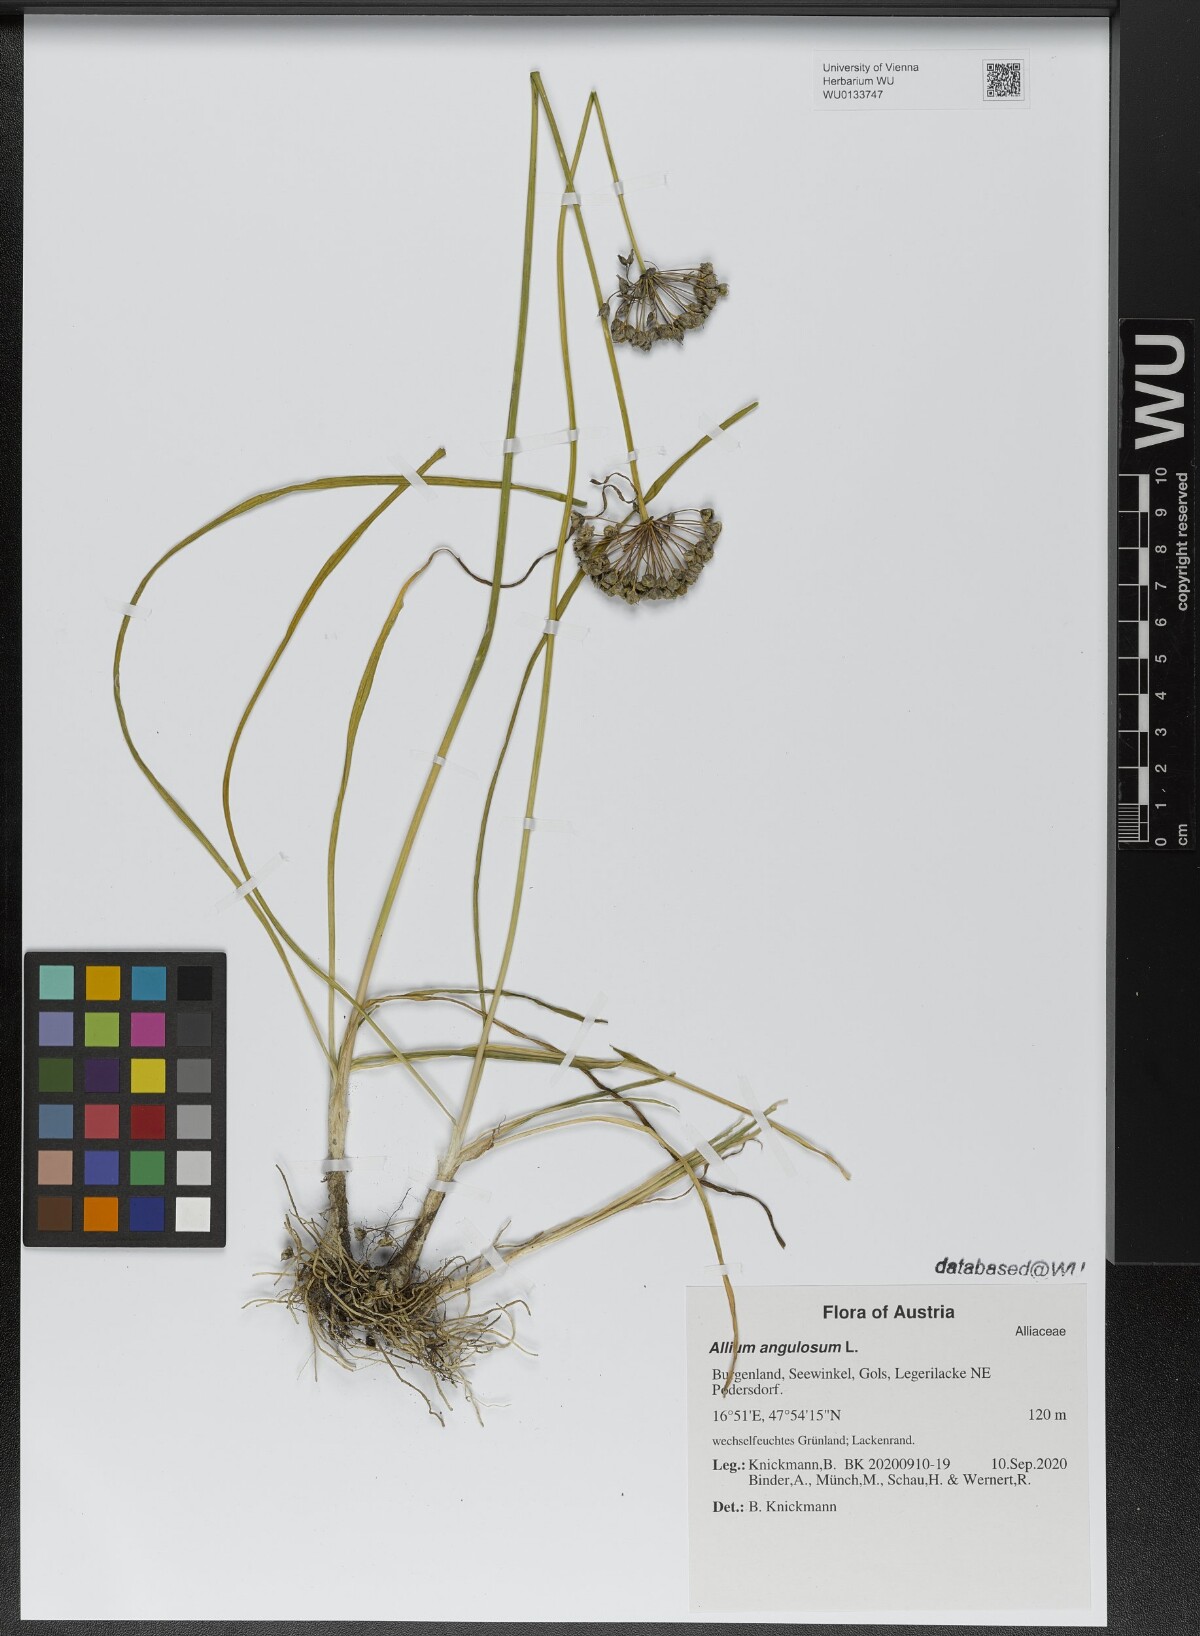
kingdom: Plantae
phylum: Tracheophyta
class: Liliopsida
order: Asparagales
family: Amaryllidaceae
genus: Allium
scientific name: Allium angulosum
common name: Mouse garlic
